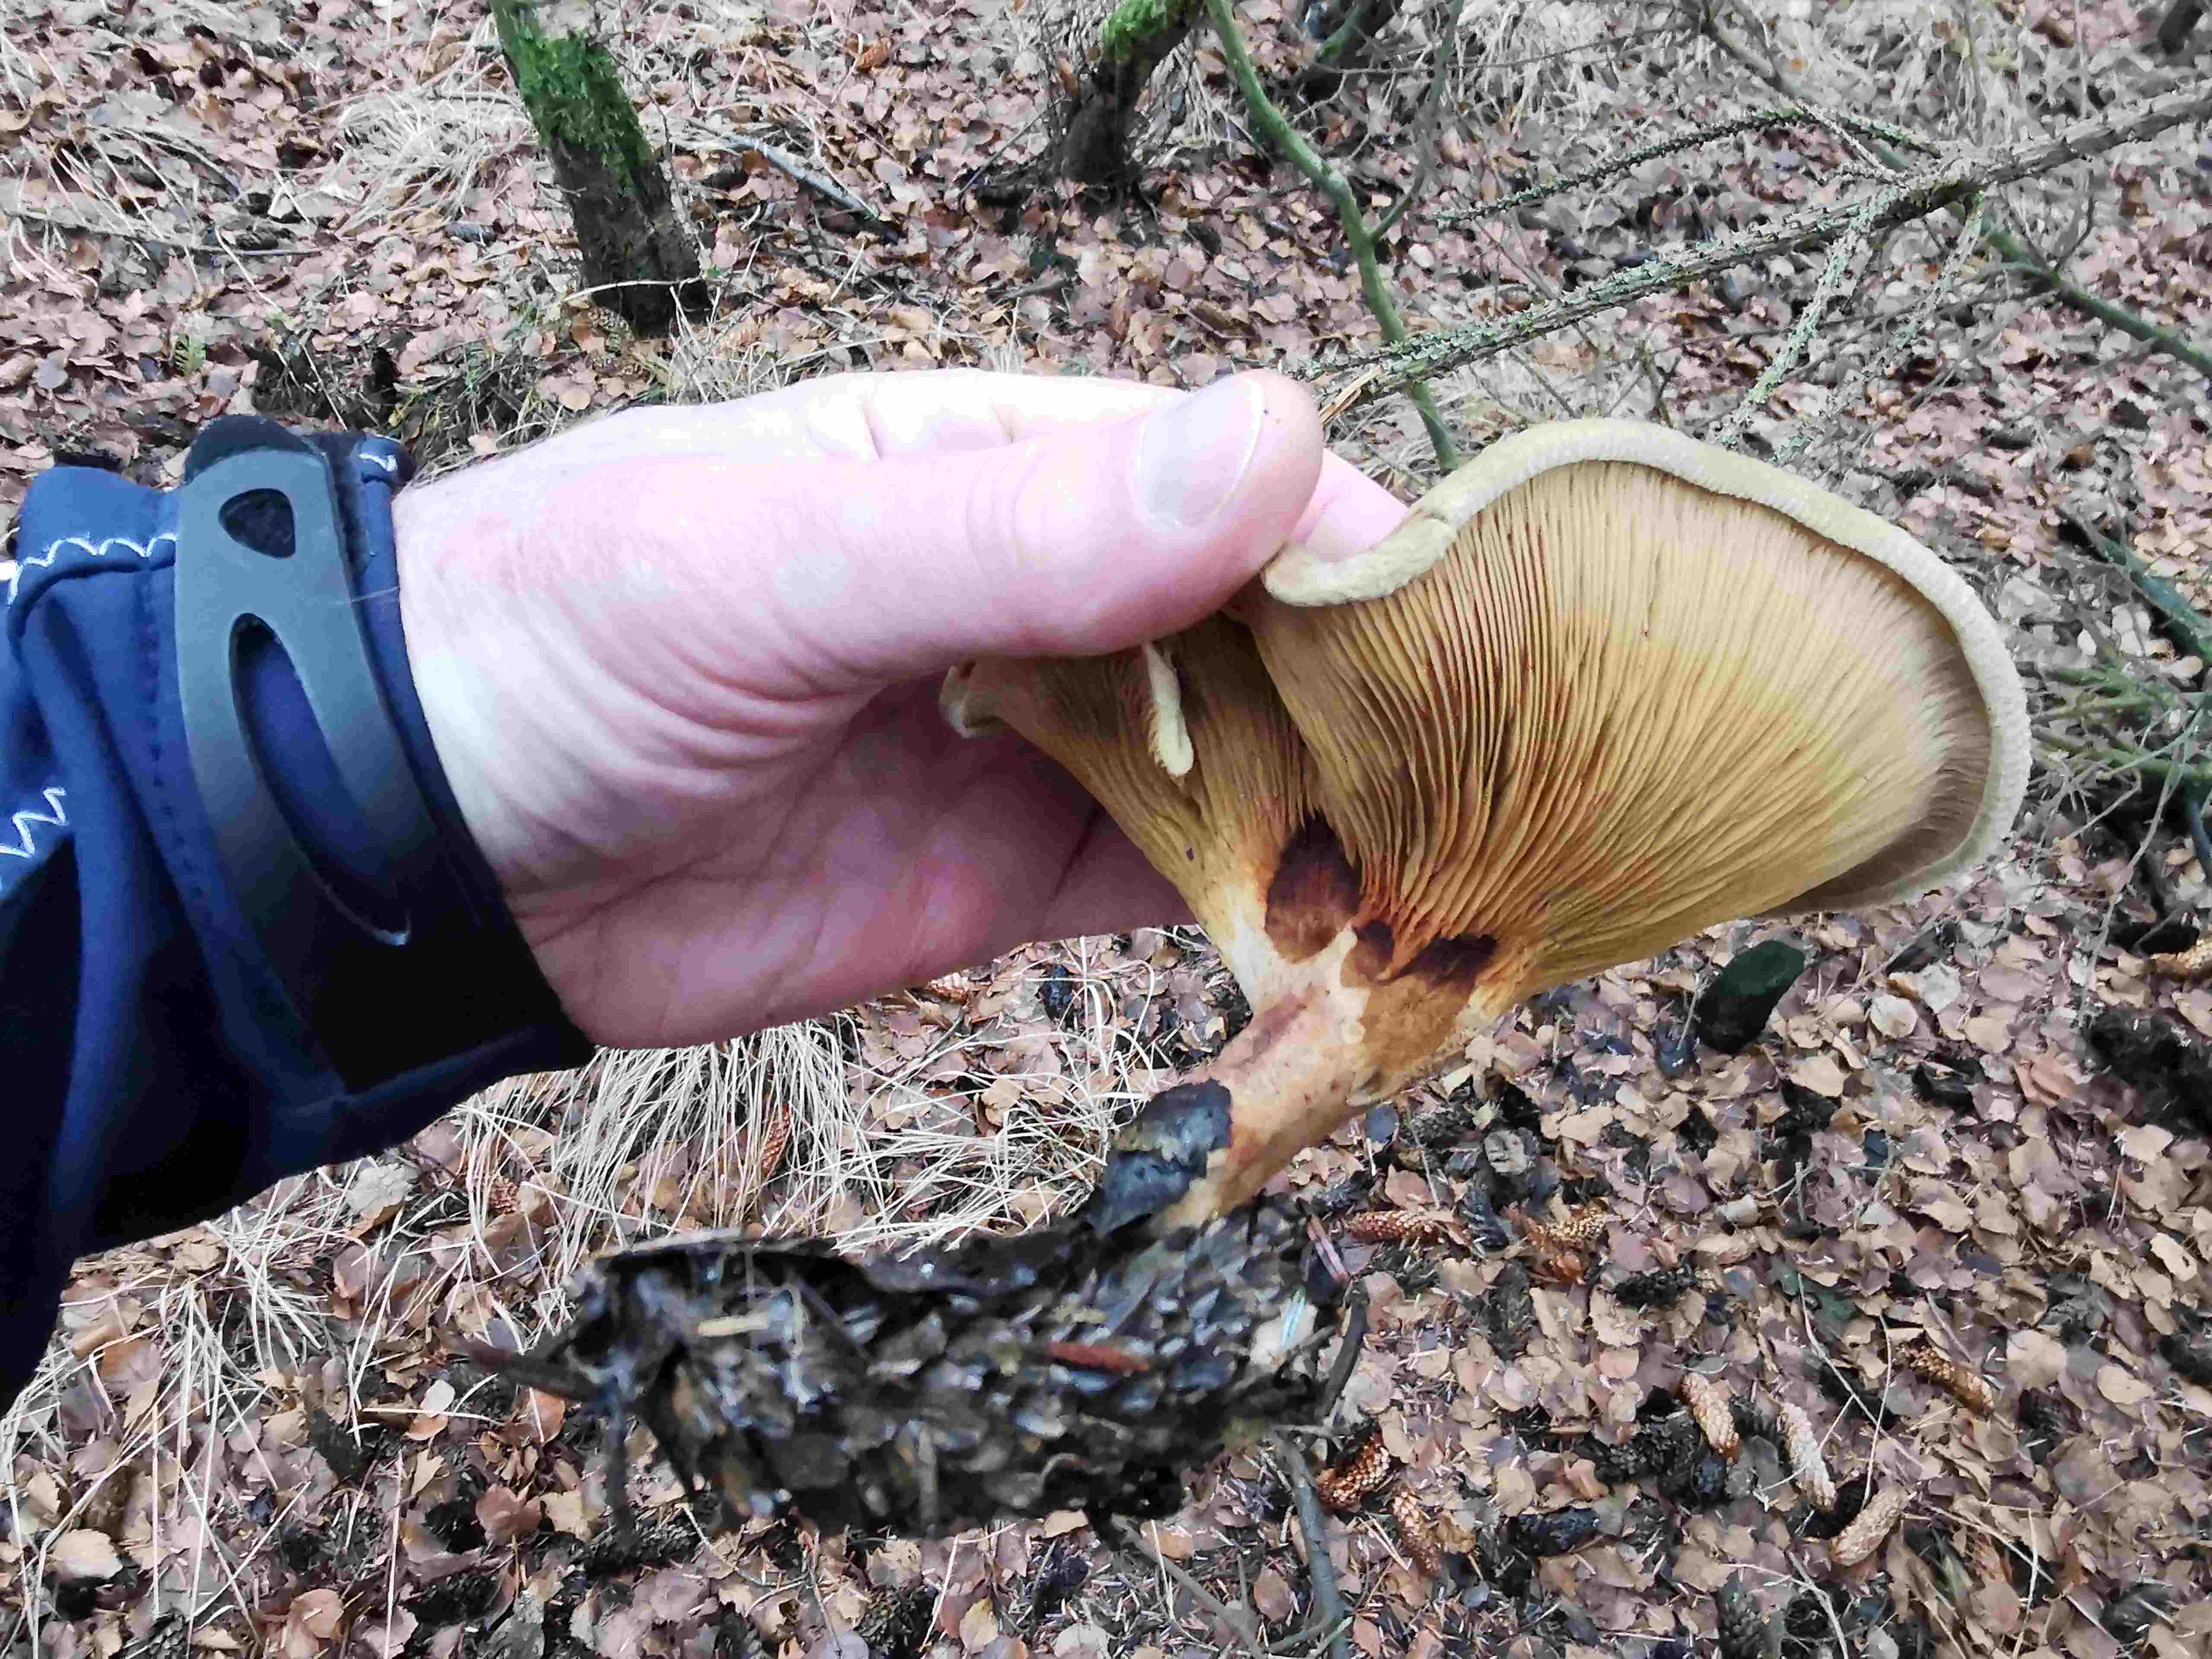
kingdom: Fungi
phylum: Basidiomycota
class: Agaricomycetes
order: Boletales
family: Paxillaceae
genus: Paxillus
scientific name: Paxillus involutus
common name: almindelig netbladhat
